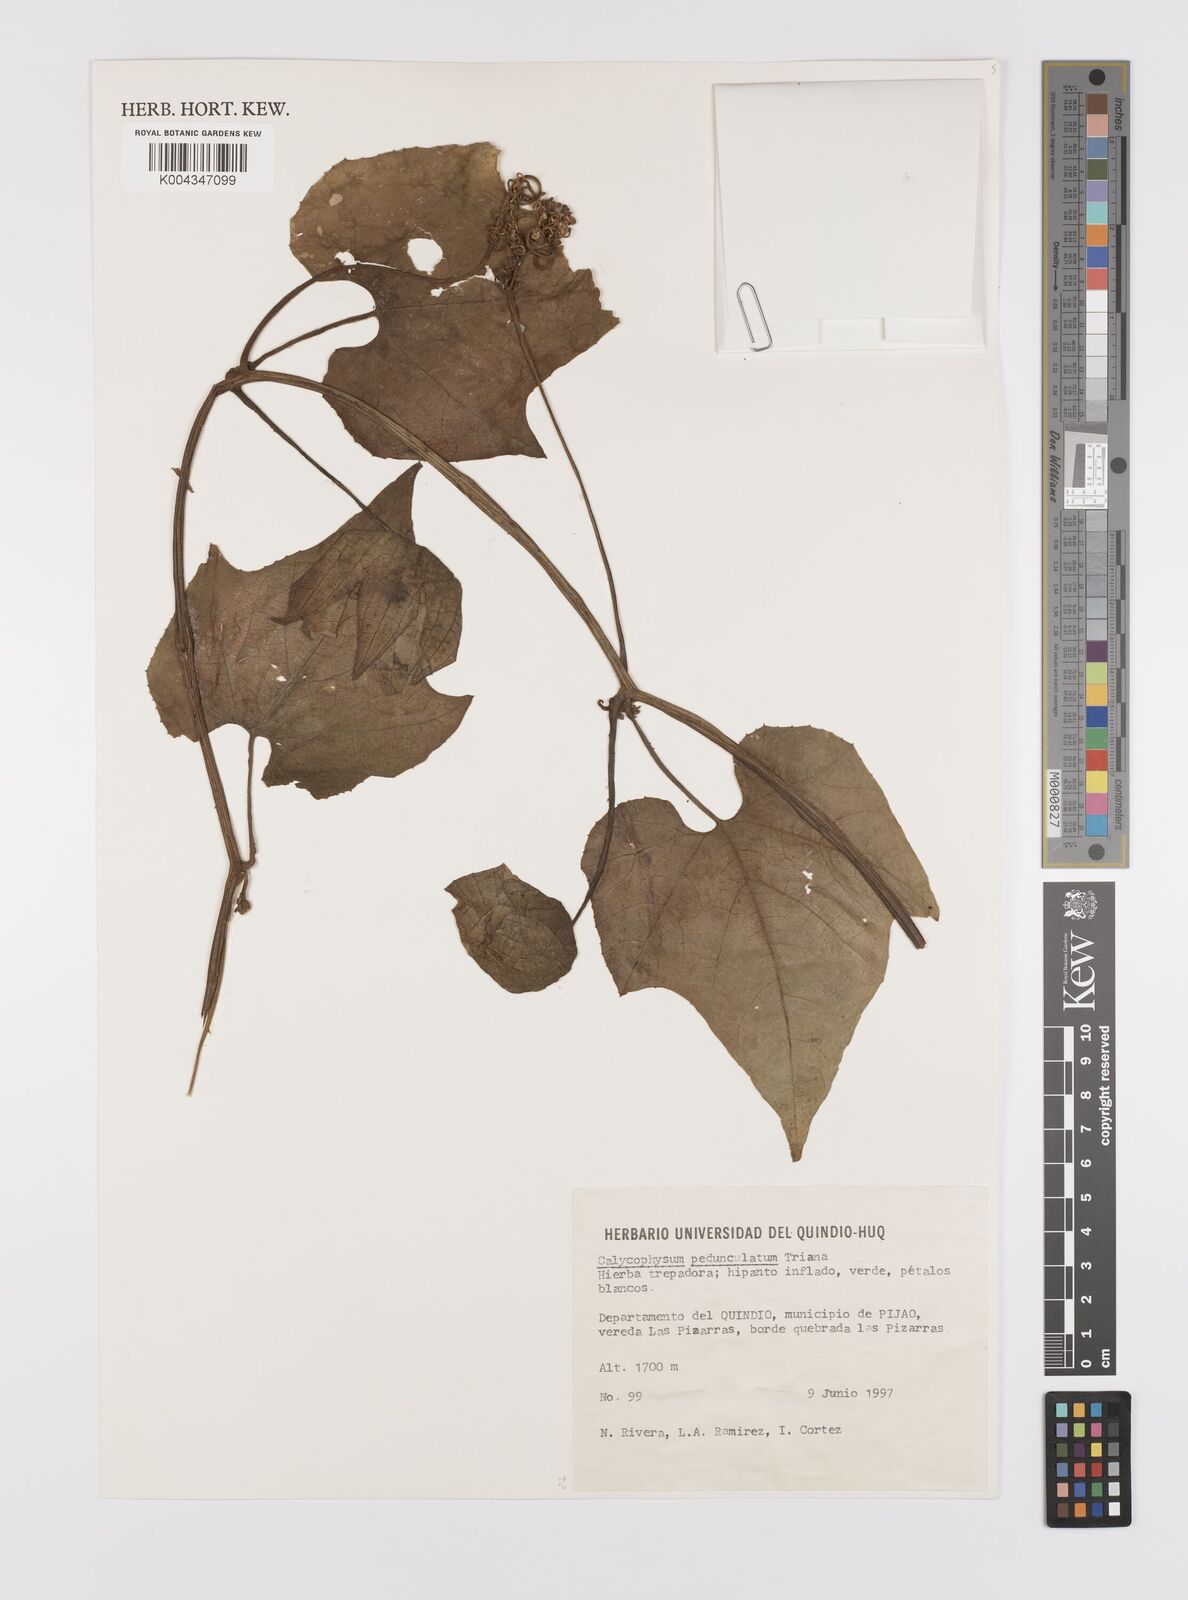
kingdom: Plantae
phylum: Tracheophyta
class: Magnoliopsida
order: Cucurbitales
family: Cucurbitaceae
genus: Calycophysum
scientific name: Calycophysum spectabile
